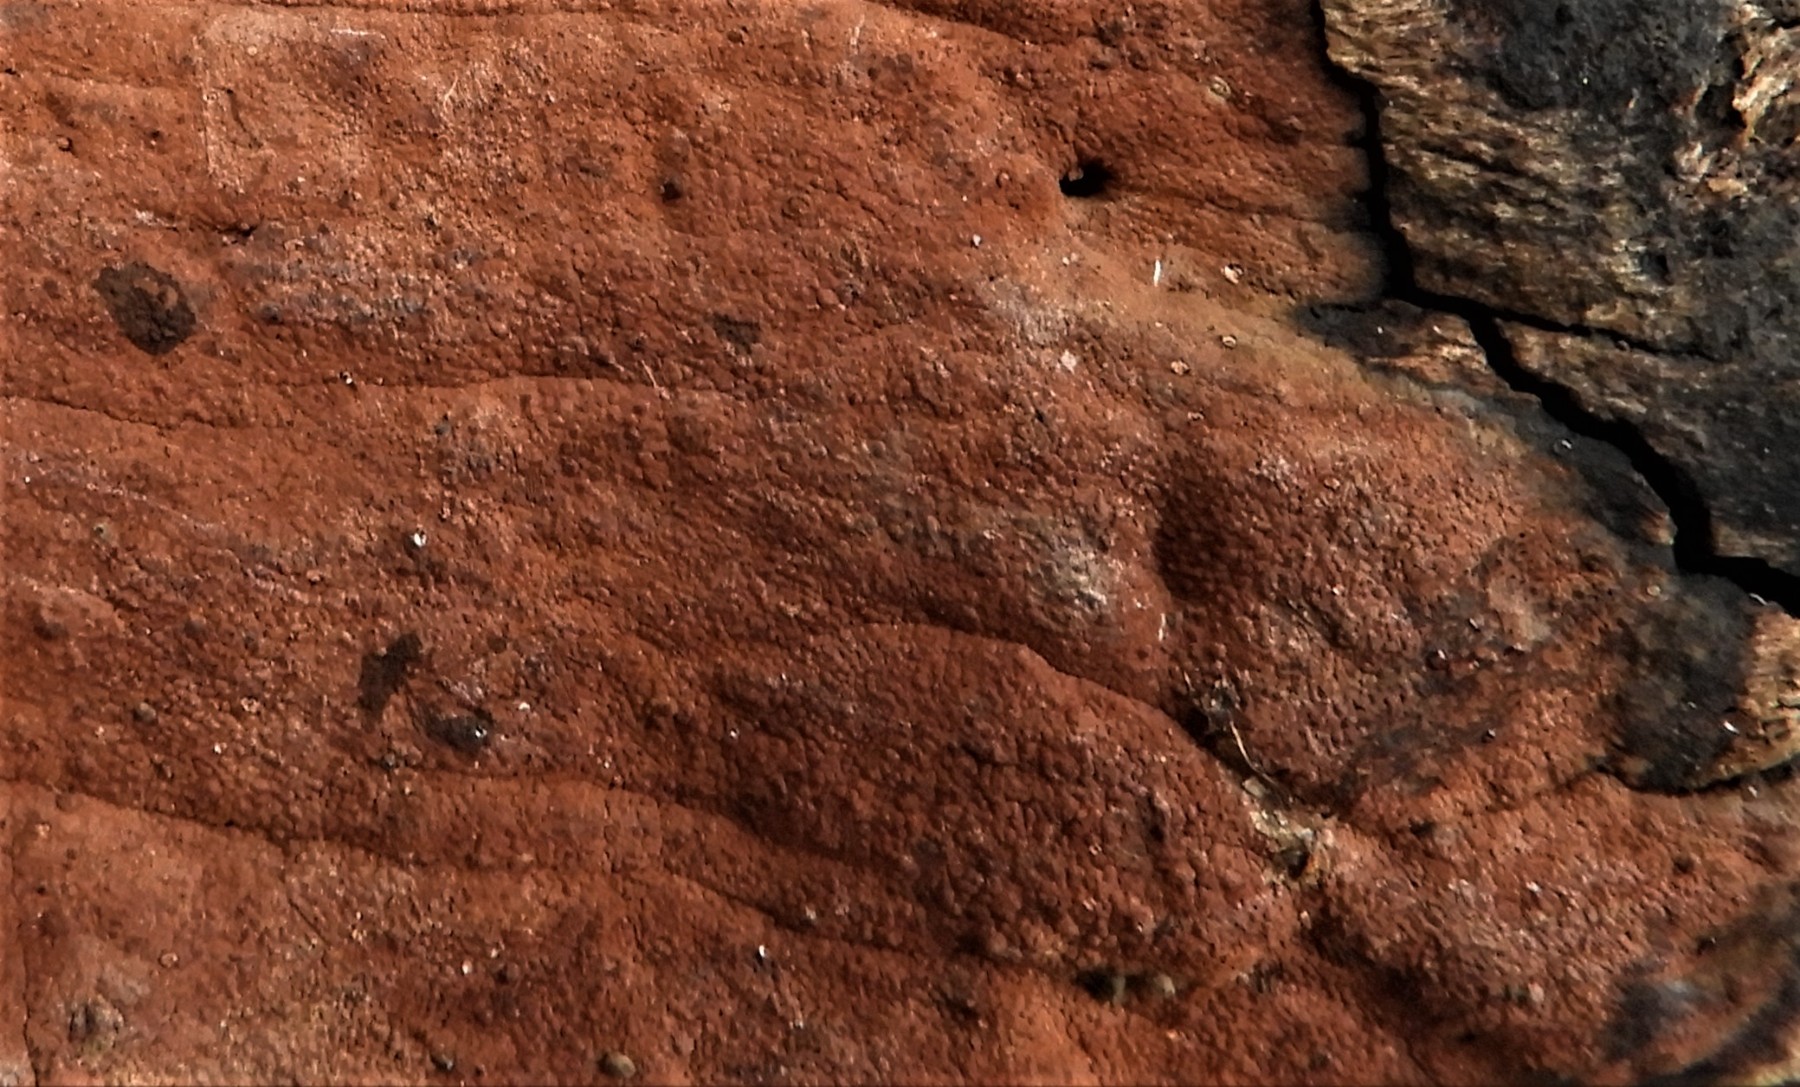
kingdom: Fungi
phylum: Ascomycota
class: Sordariomycetes
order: Xylariales
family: Hypoxylaceae
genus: Hypoxylon
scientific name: Hypoxylon rubiginosum
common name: rustfarvet kulbær
